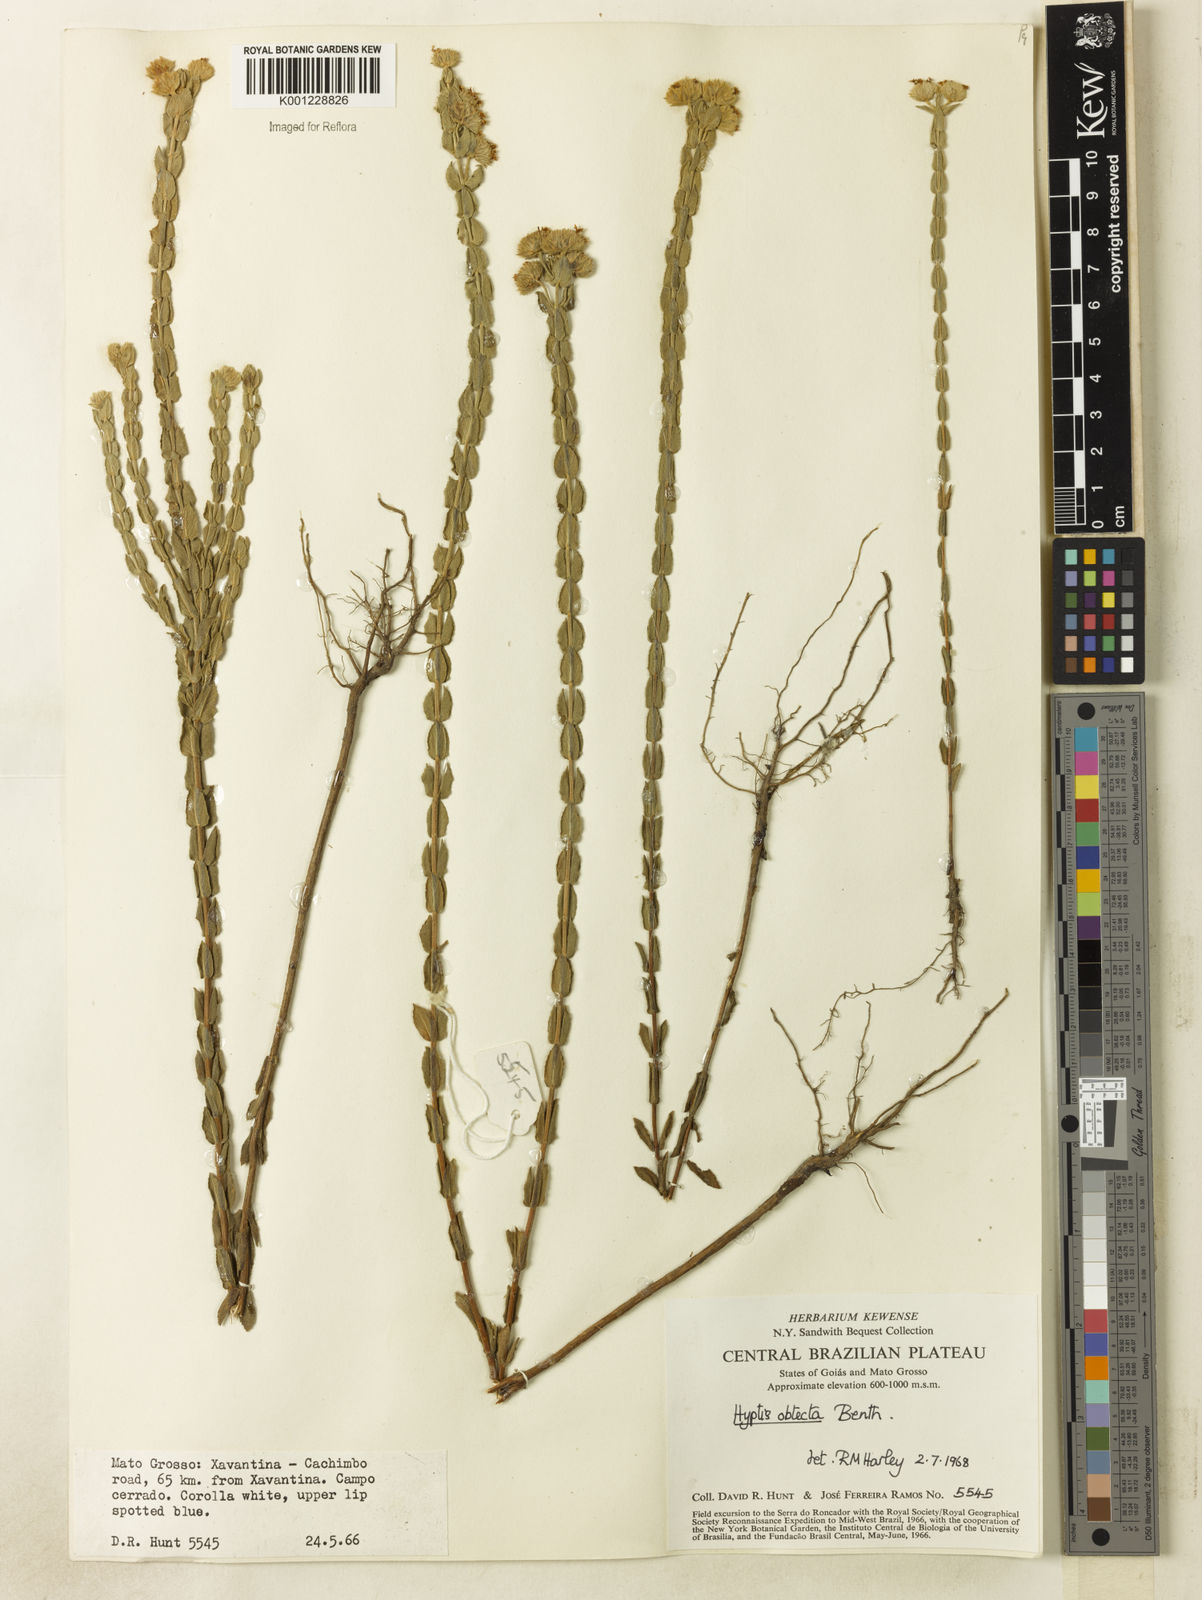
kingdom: Plantae
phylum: Tracheophyta
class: Magnoliopsida
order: Lamiales
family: Lamiaceae
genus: Hyptis
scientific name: Hyptis obtecta
